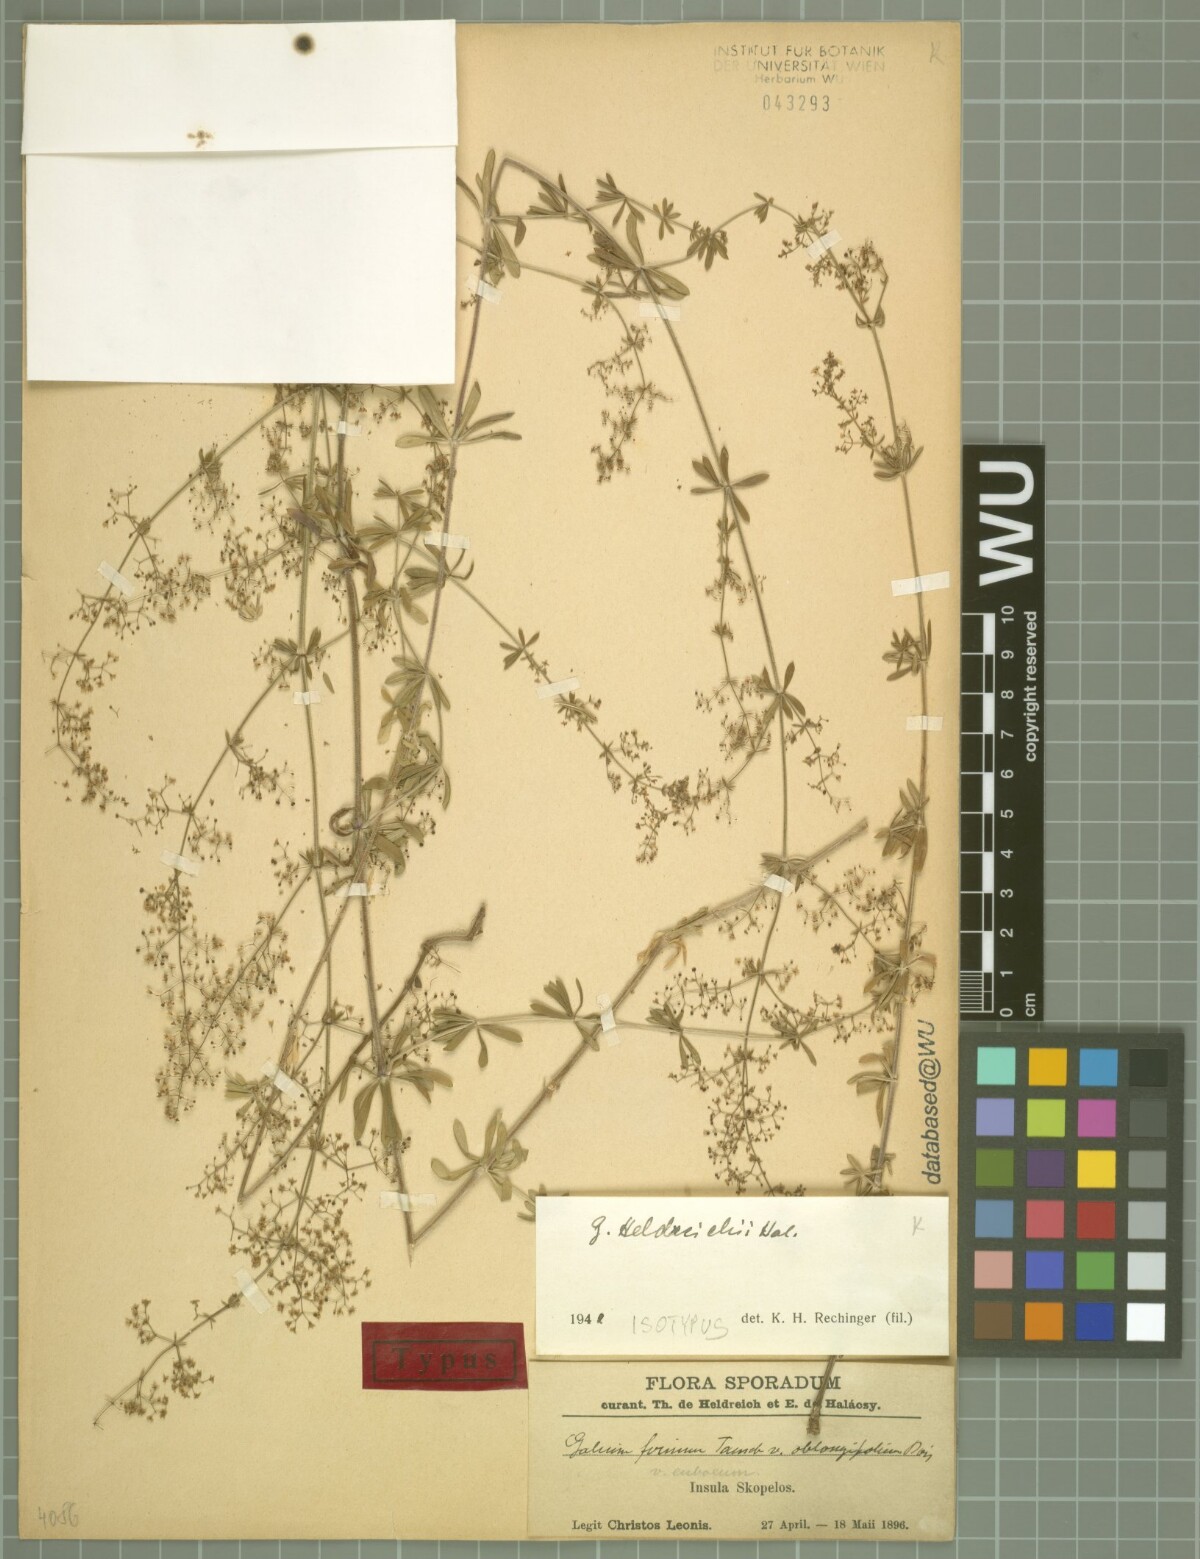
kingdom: Plantae
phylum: Tracheophyta
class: Magnoliopsida
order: Gentianales
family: Rubiaceae
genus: Galium
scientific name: Galium heldreichii
